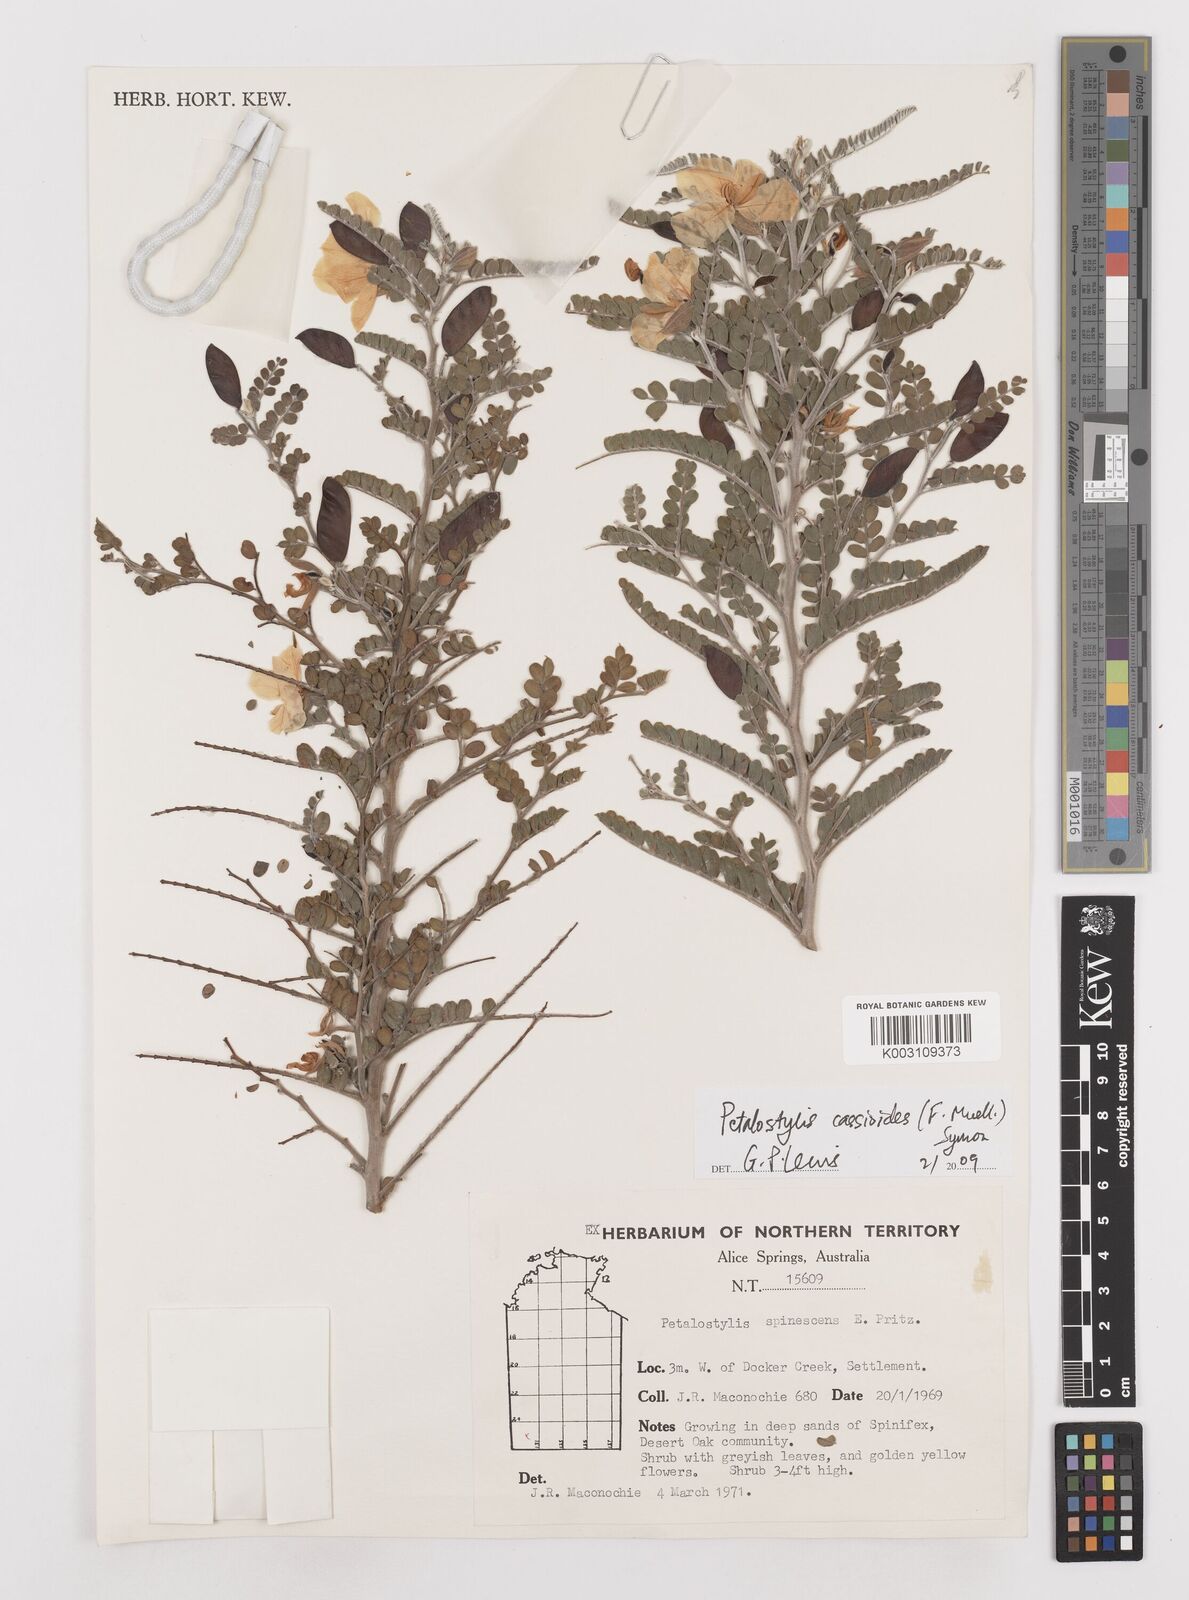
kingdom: Plantae
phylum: Tracheophyta
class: Magnoliopsida
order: Fabales
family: Fabaceae
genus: Petalostylis
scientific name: Petalostylis cassioides
